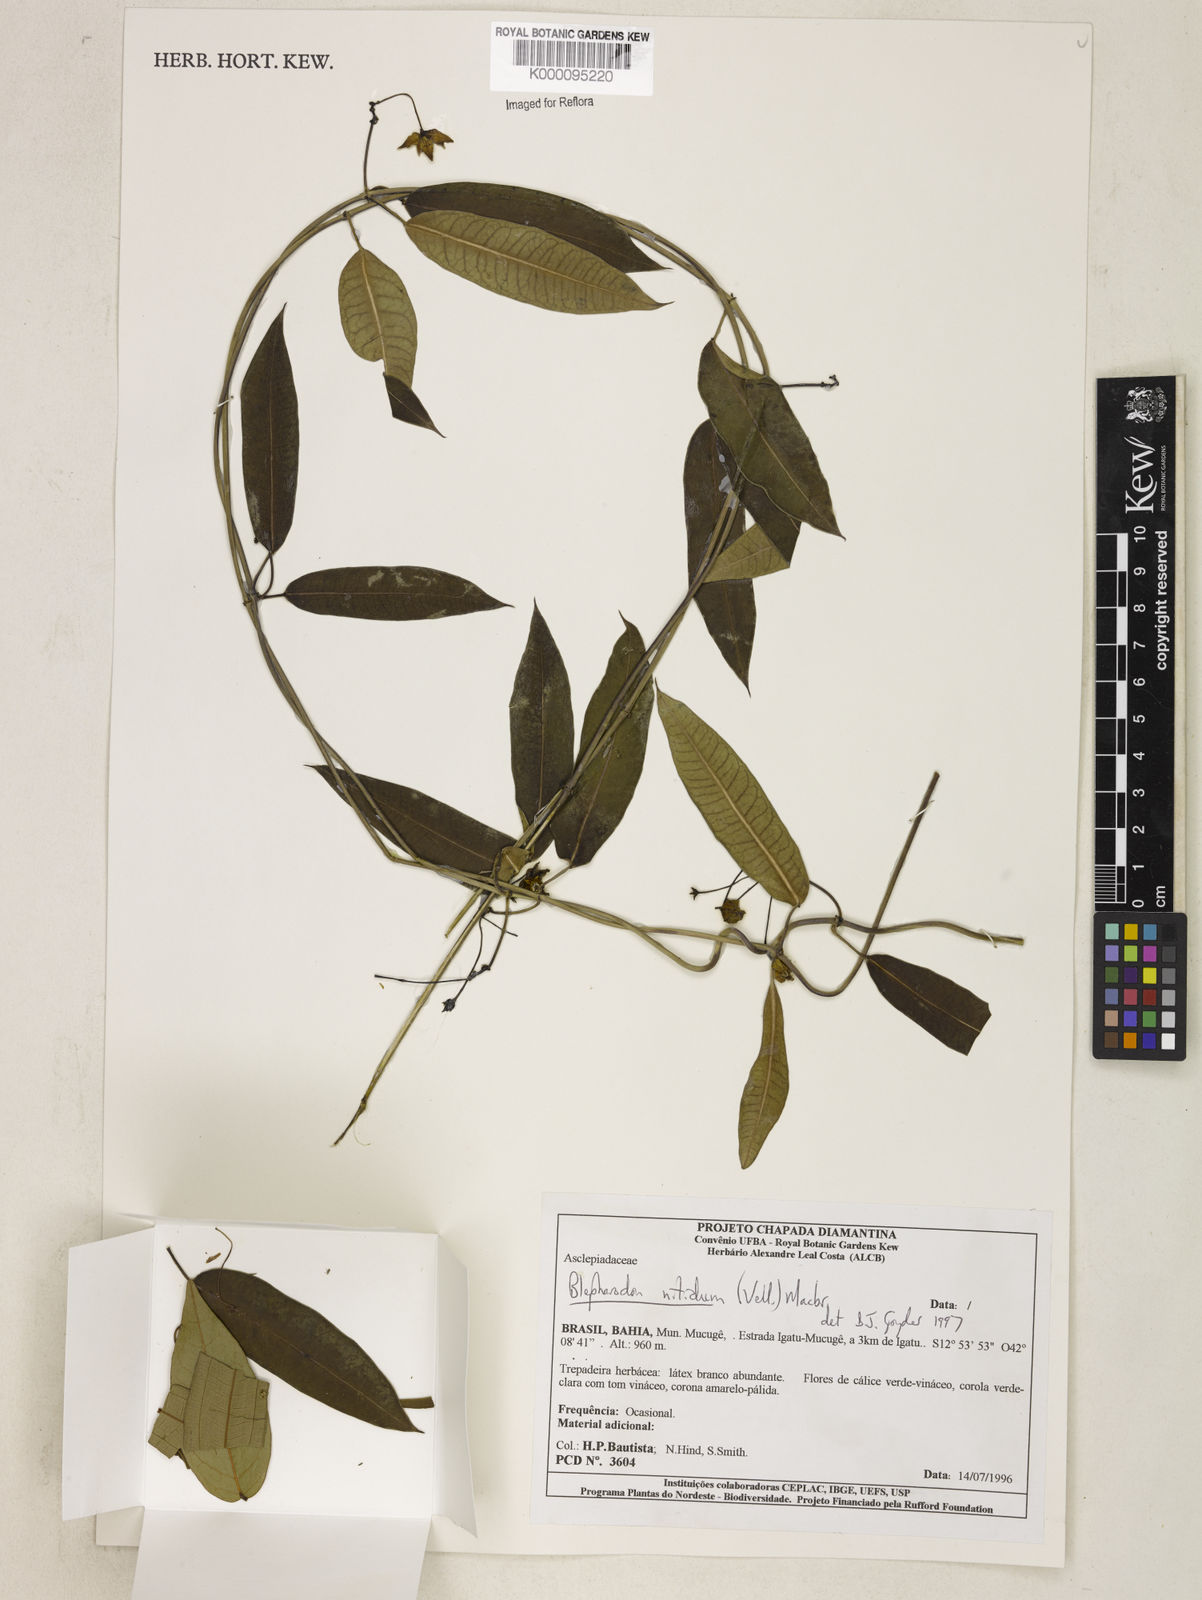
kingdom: Plantae
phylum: Tracheophyta
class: Magnoliopsida
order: Gentianales
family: Apocynaceae
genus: Blepharodon
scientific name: Blepharodon pictum
